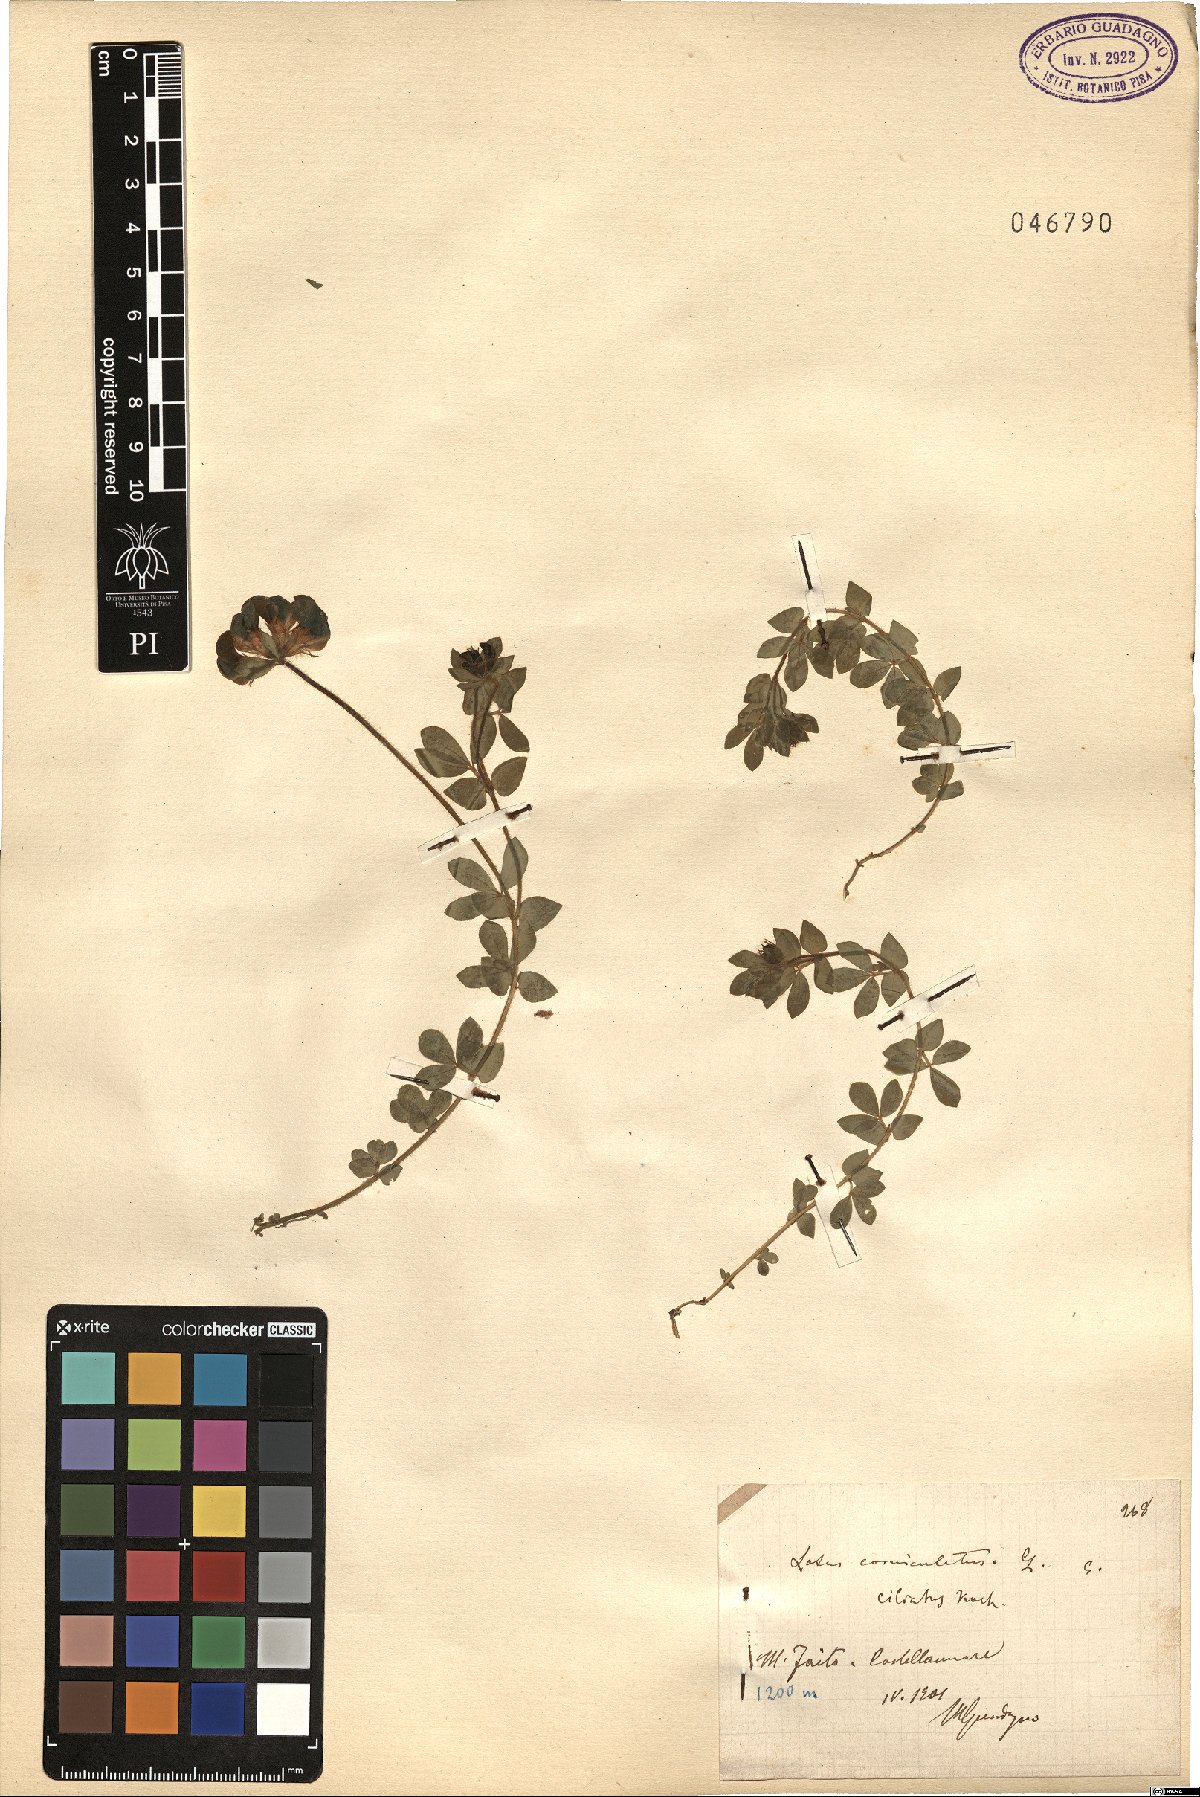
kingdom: Plantae
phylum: Tracheophyta
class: Magnoliopsida
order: Fabales
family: Fabaceae
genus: Lotus
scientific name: Lotus angustissimus
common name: Slender bird's-foot trefoil
